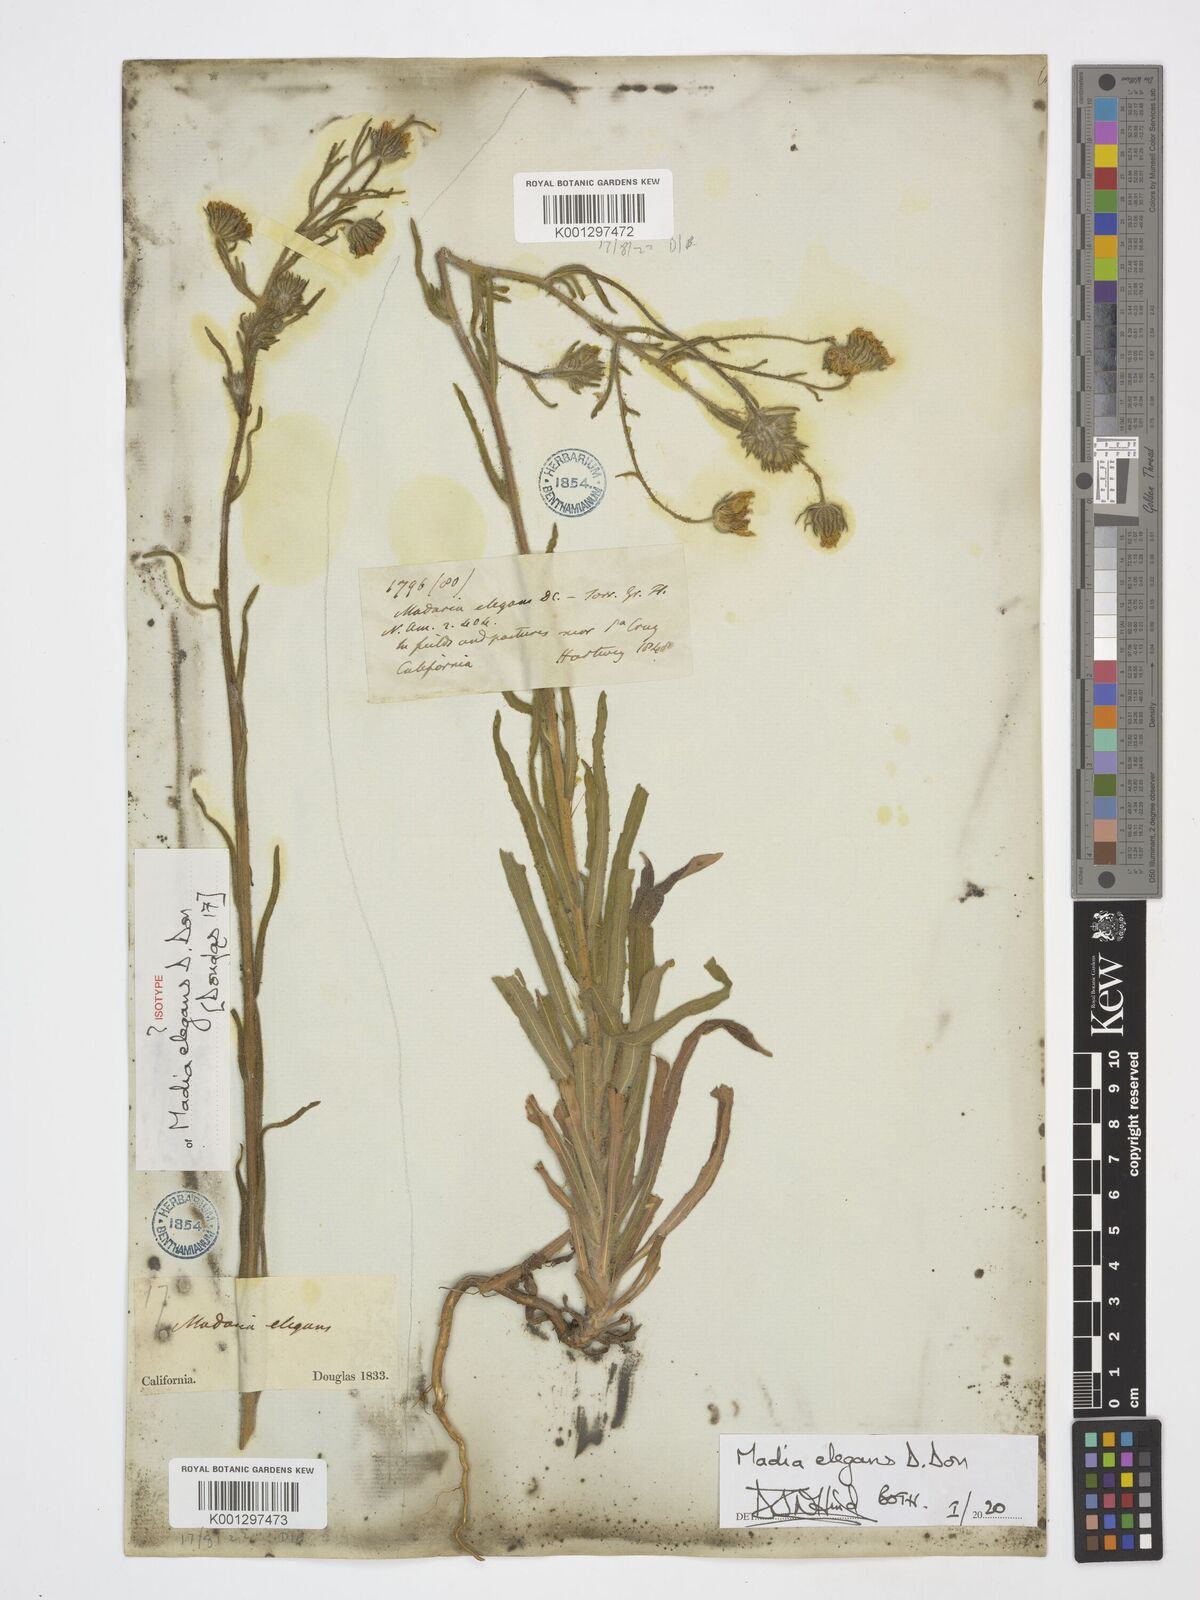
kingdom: Plantae
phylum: Tracheophyta
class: Magnoliopsida
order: Asterales
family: Asteraceae
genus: Madia
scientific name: Madia elegans
